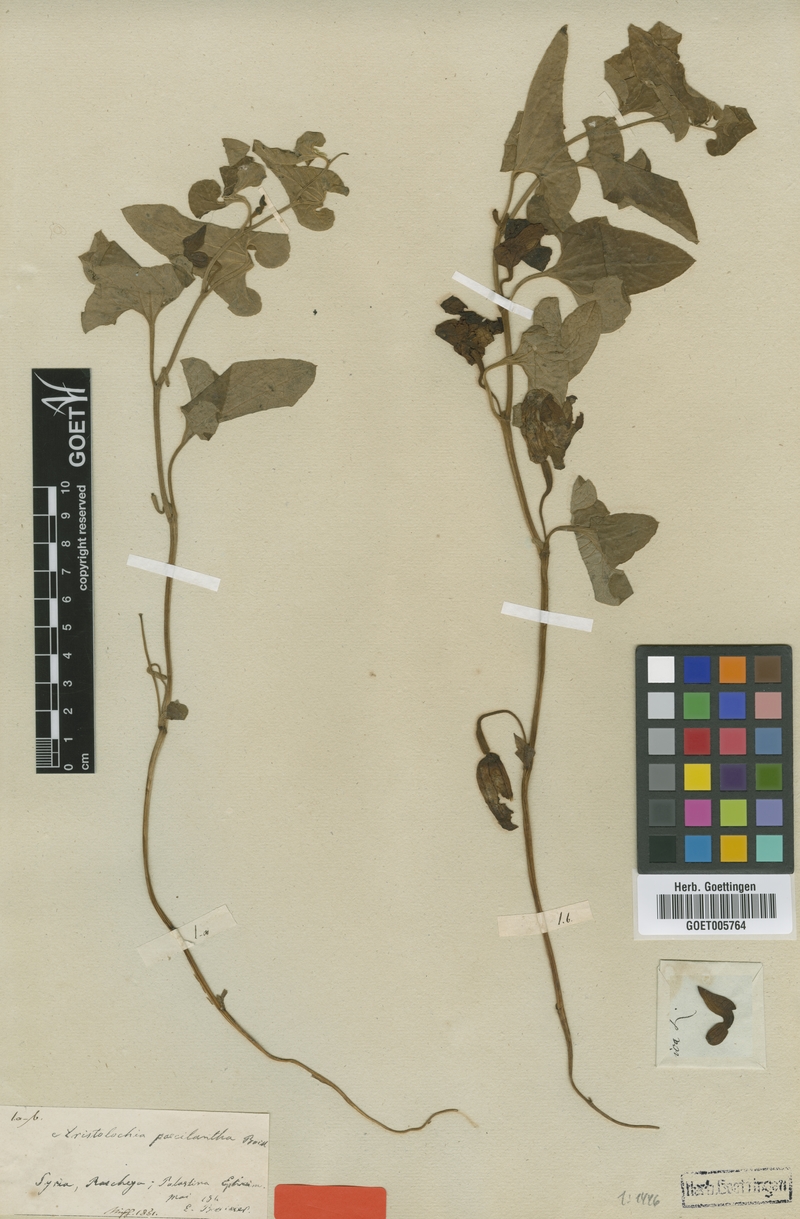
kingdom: Plantae
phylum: Tracheophyta
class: Magnoliopsida
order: Piperales
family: Aristolochiaceae
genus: Aristolochia
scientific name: Aristolochia paecilantha
